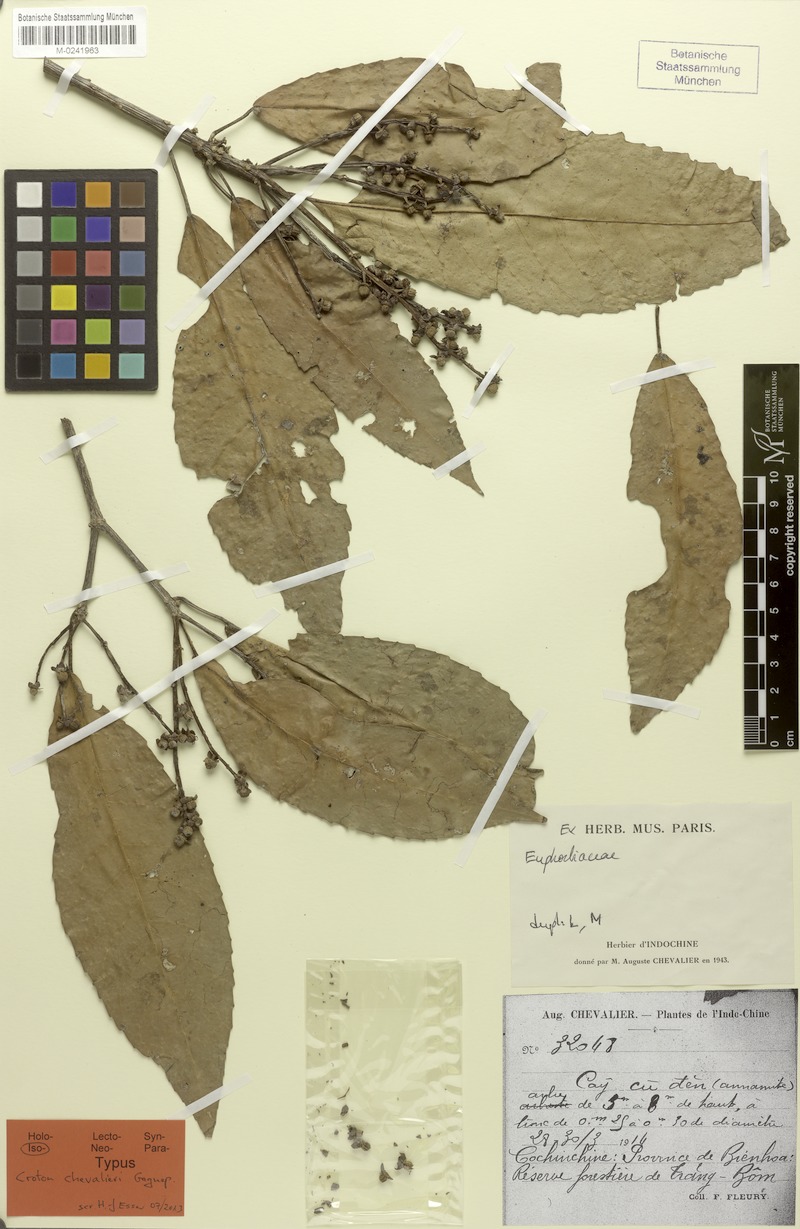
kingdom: Plantae
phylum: Tracheophyta
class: Magnoliopsida
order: Malpighiales
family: Euphorbiaceae
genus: Croton
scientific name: Croton chevalieri
